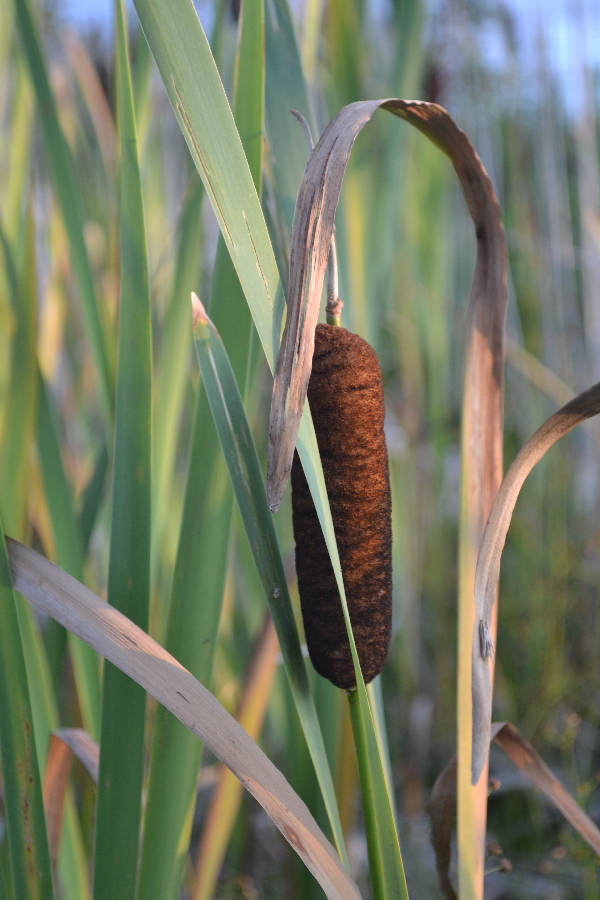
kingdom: Plantae
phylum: Tracheophyta
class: Liliopsida
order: Poales
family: Typhaceae
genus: Typha
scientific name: Typha latifolia
